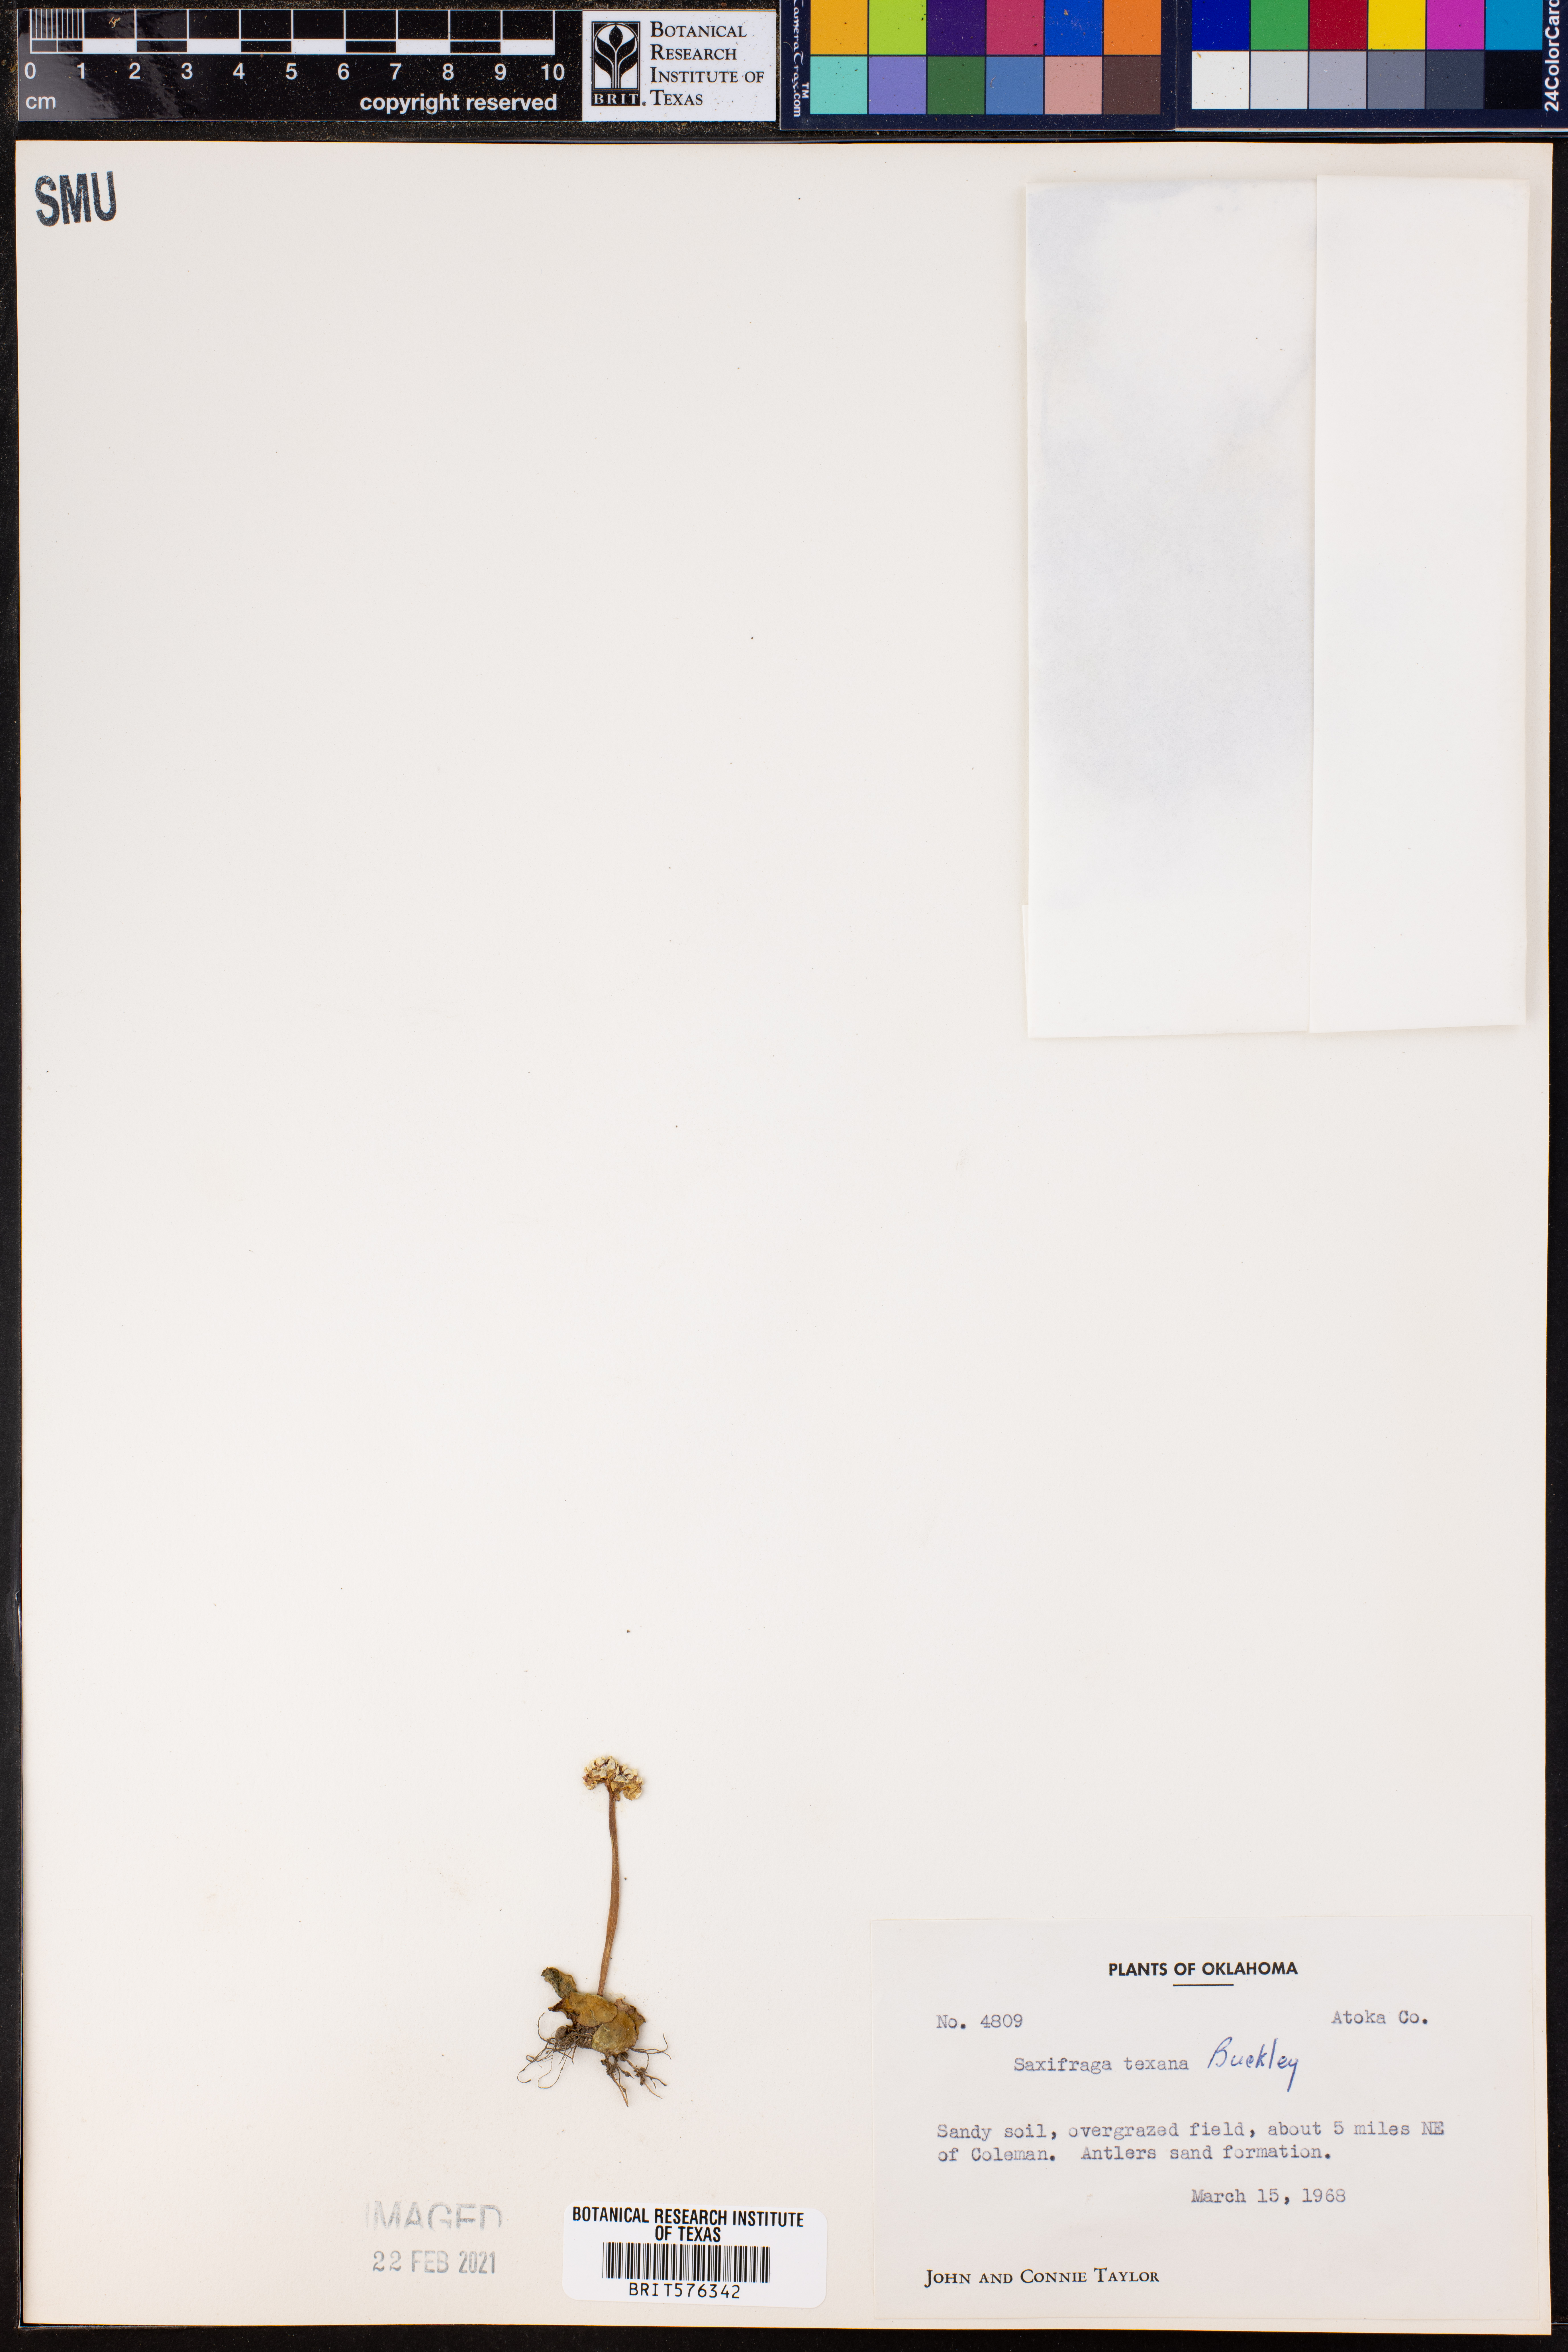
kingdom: Plantae
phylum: Tracheophyta
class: Magnoliopsida
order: Saxifragales
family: Saxifragaceae
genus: Micranthes
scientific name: Micranthes texana
